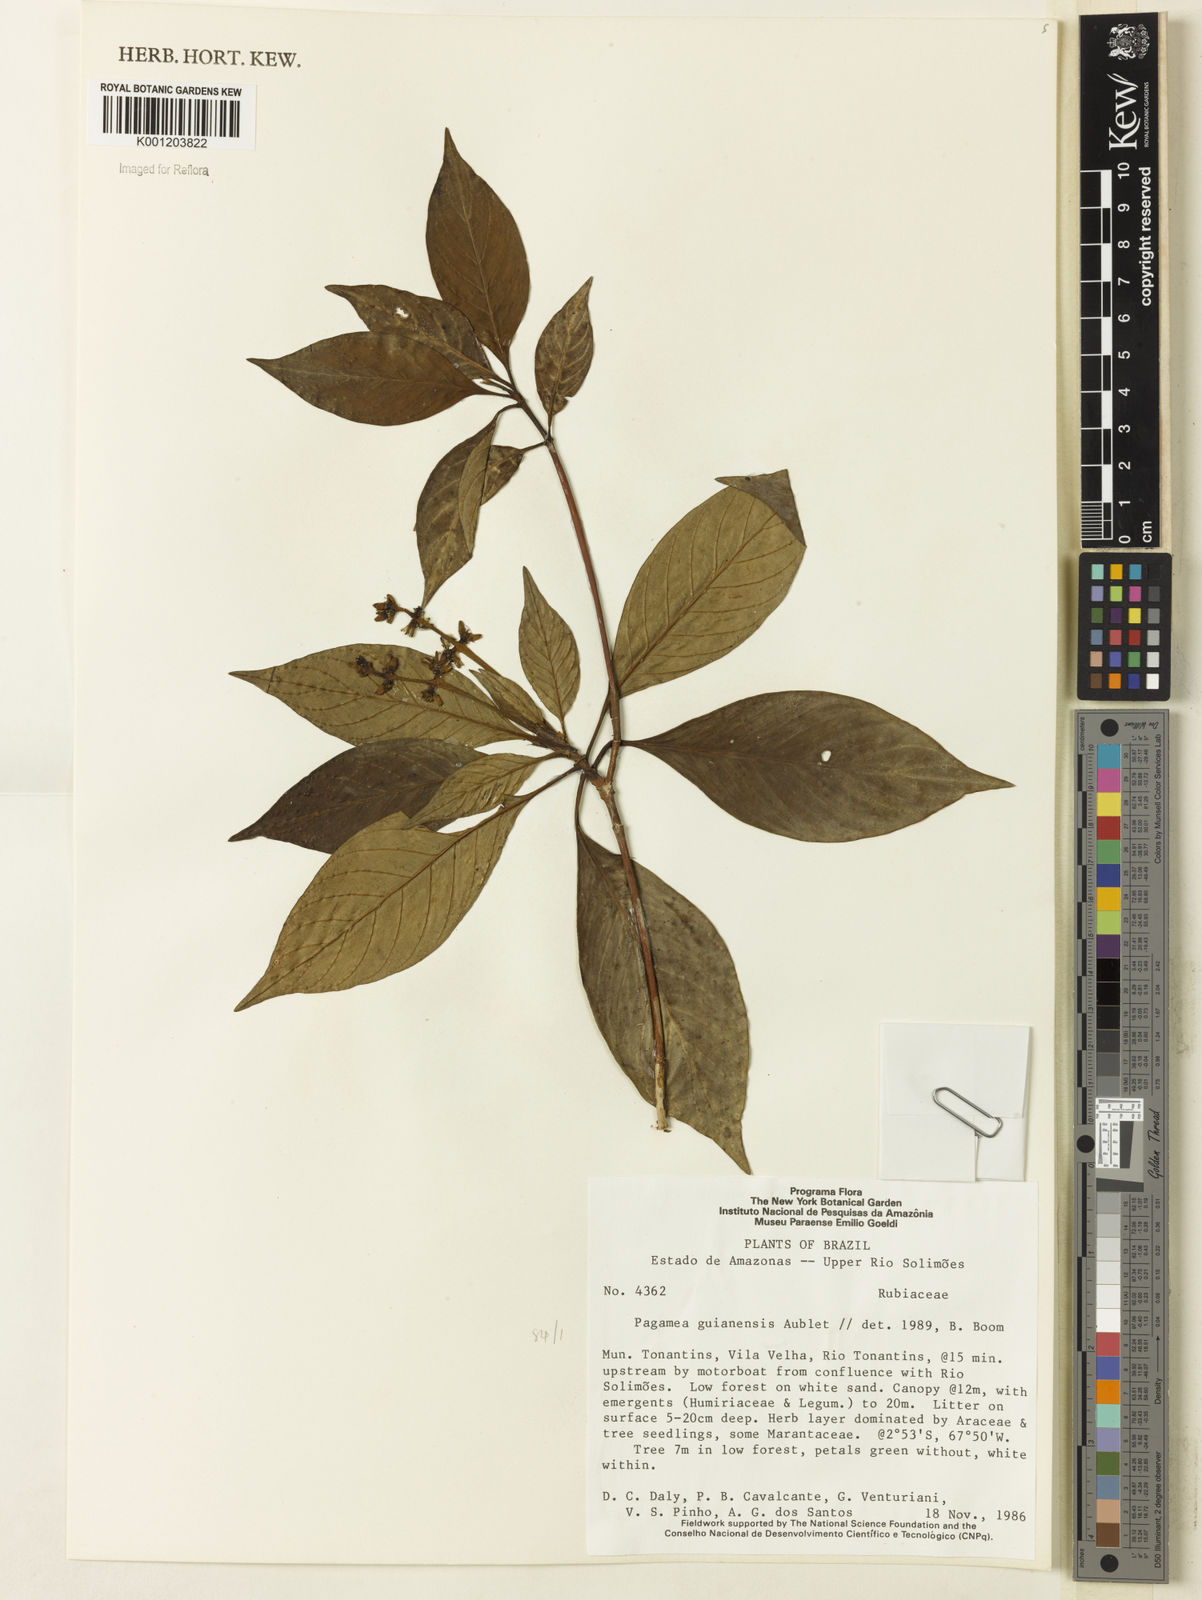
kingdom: Plantae
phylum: Tracheophyta
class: Magnoliopsida
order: Gentianales
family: Rubiaceae
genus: Pagamea
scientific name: Pagamea guianensis
